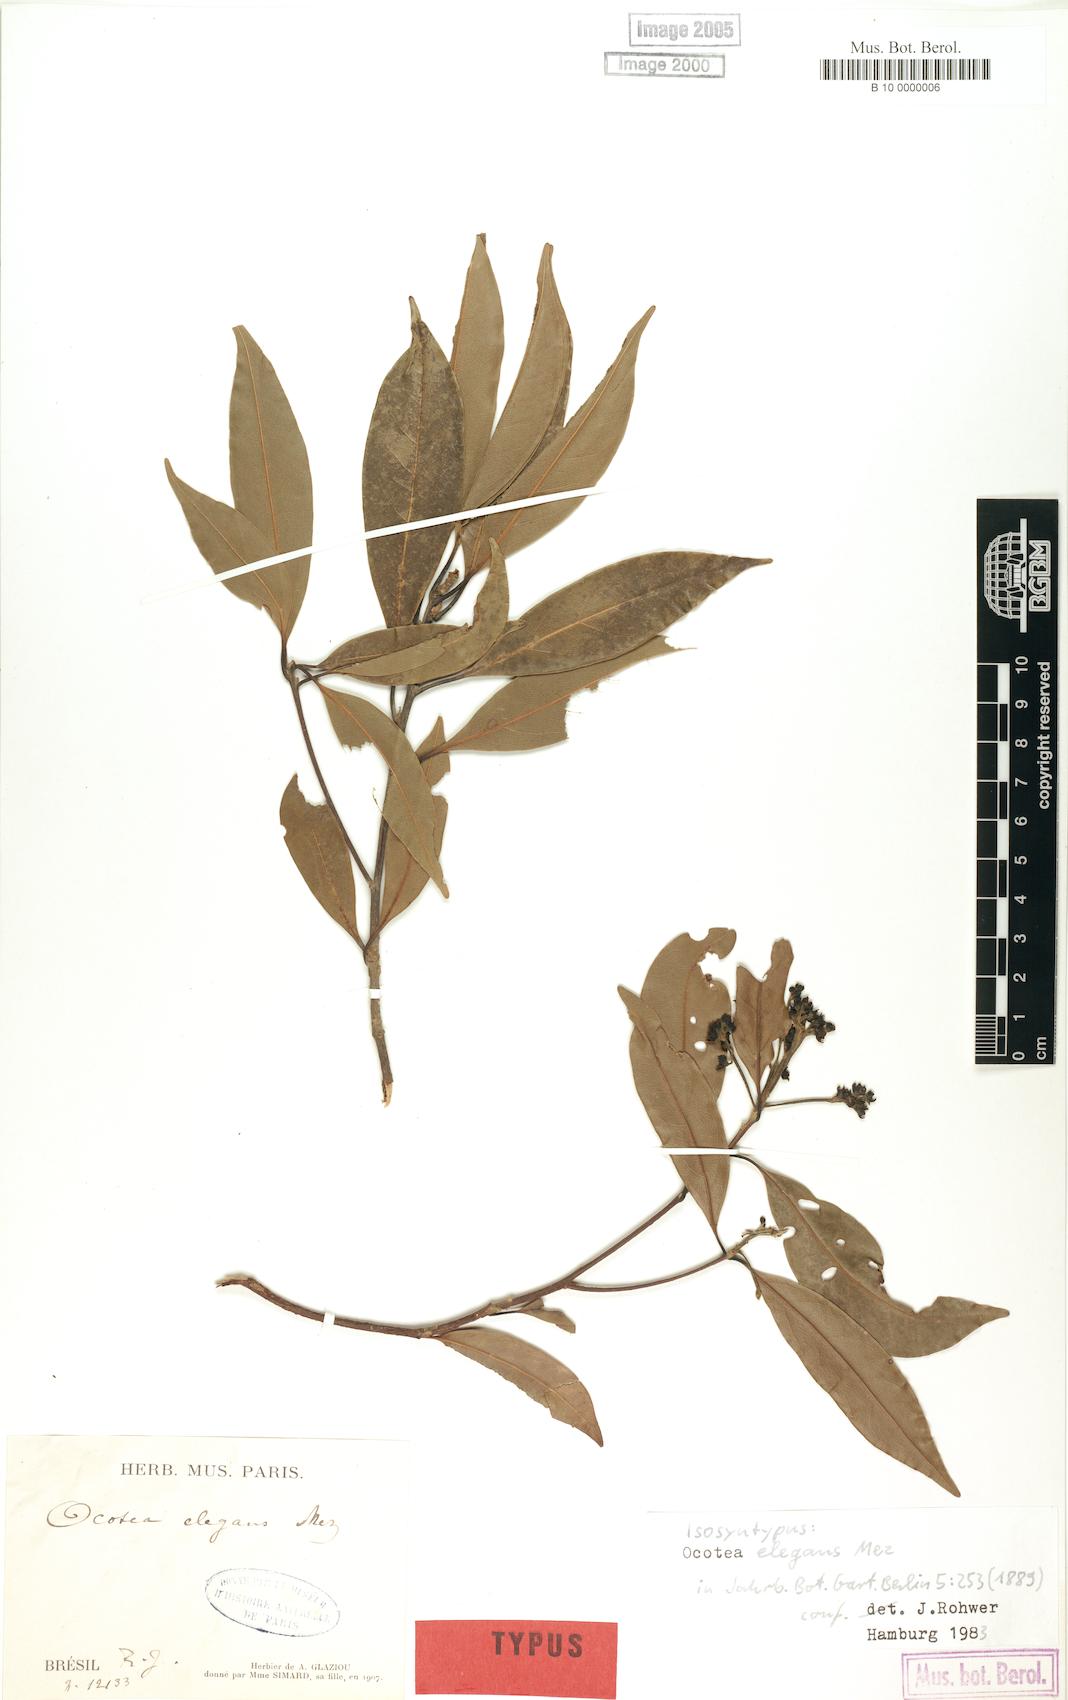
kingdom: Plantae
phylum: Tracheophyta
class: Magnoliopsida
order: Laurales
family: Lauraceae
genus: Ocotea
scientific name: Ocotea elegans
